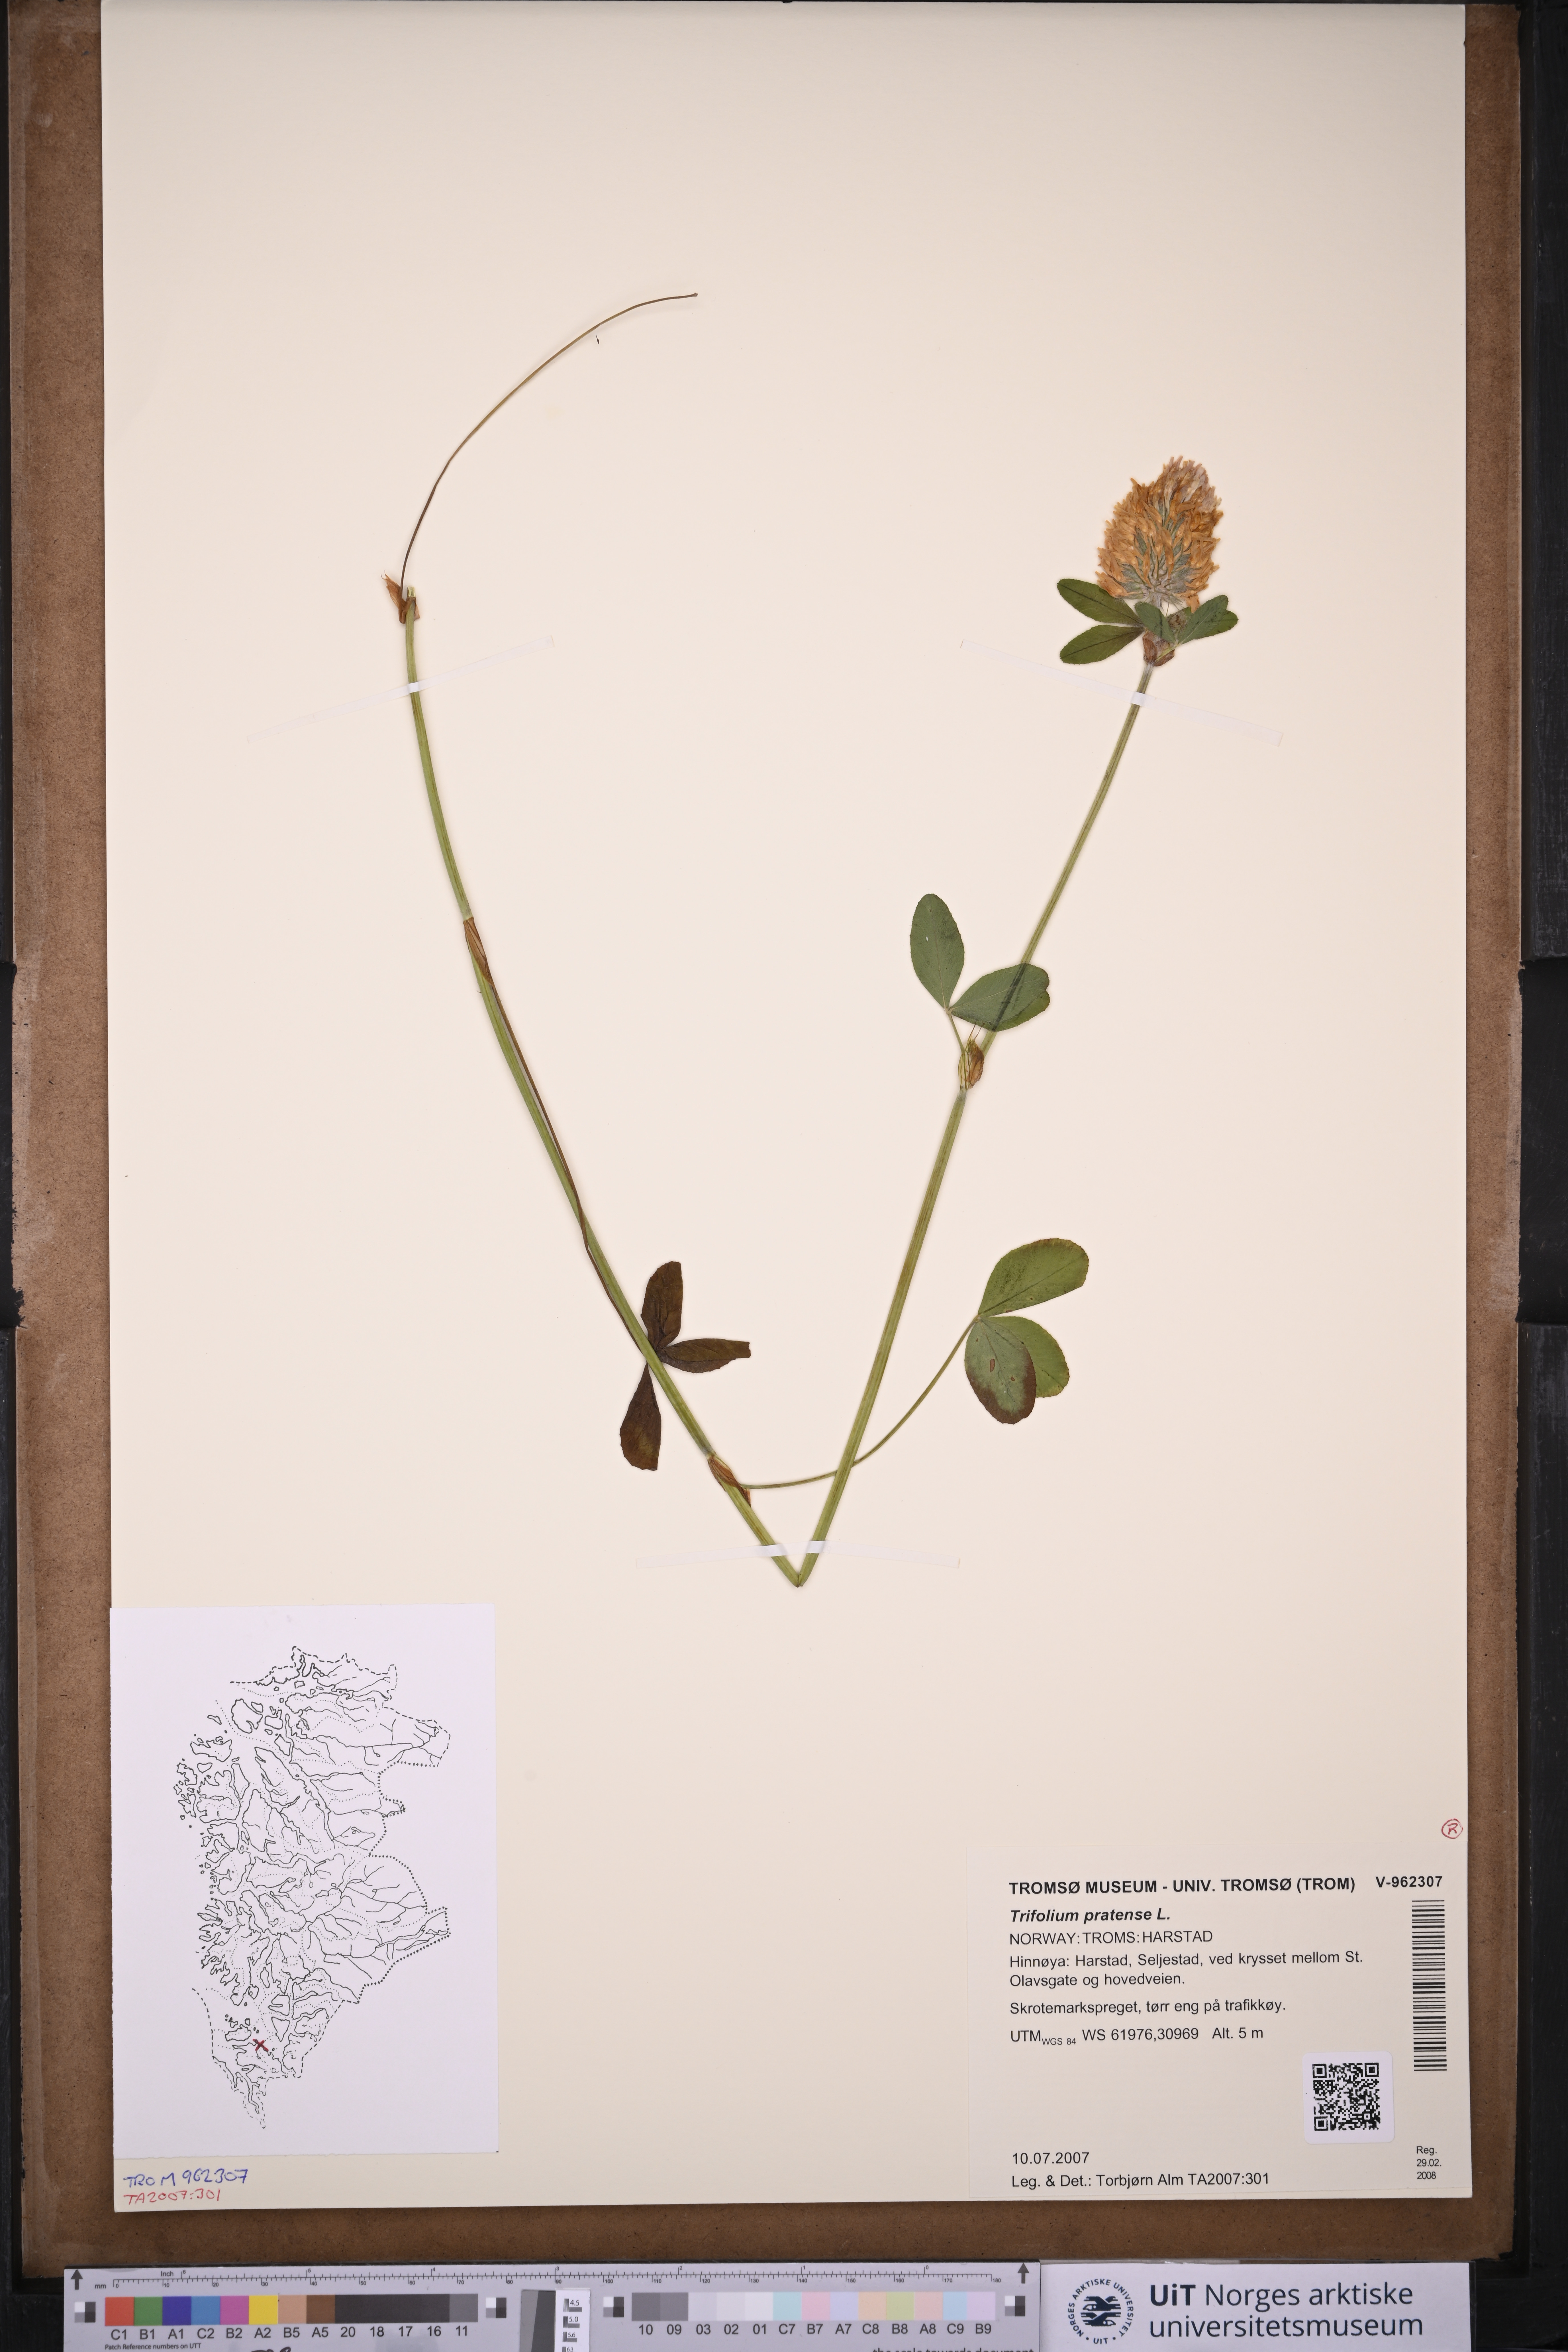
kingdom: Plantae
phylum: Tracheophyta
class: Magnoliopsida
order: Fabales
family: Fabaceae
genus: Trifolium
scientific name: Trifolium pratense
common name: Red clover
